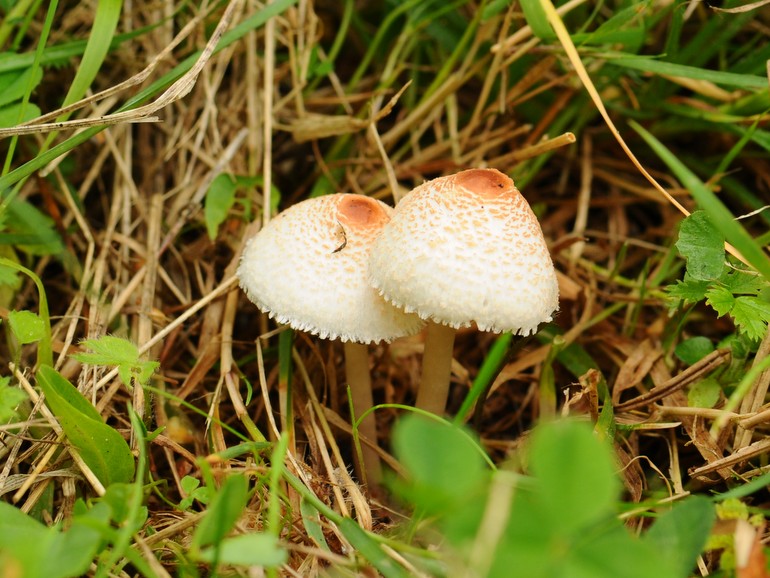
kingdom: Fungi
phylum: Basidiomycota
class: Agaricomycetes
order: Agaricales
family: Agaricaceae
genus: Lepiota
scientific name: Lepiota cristata
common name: stinkende parasolhat
